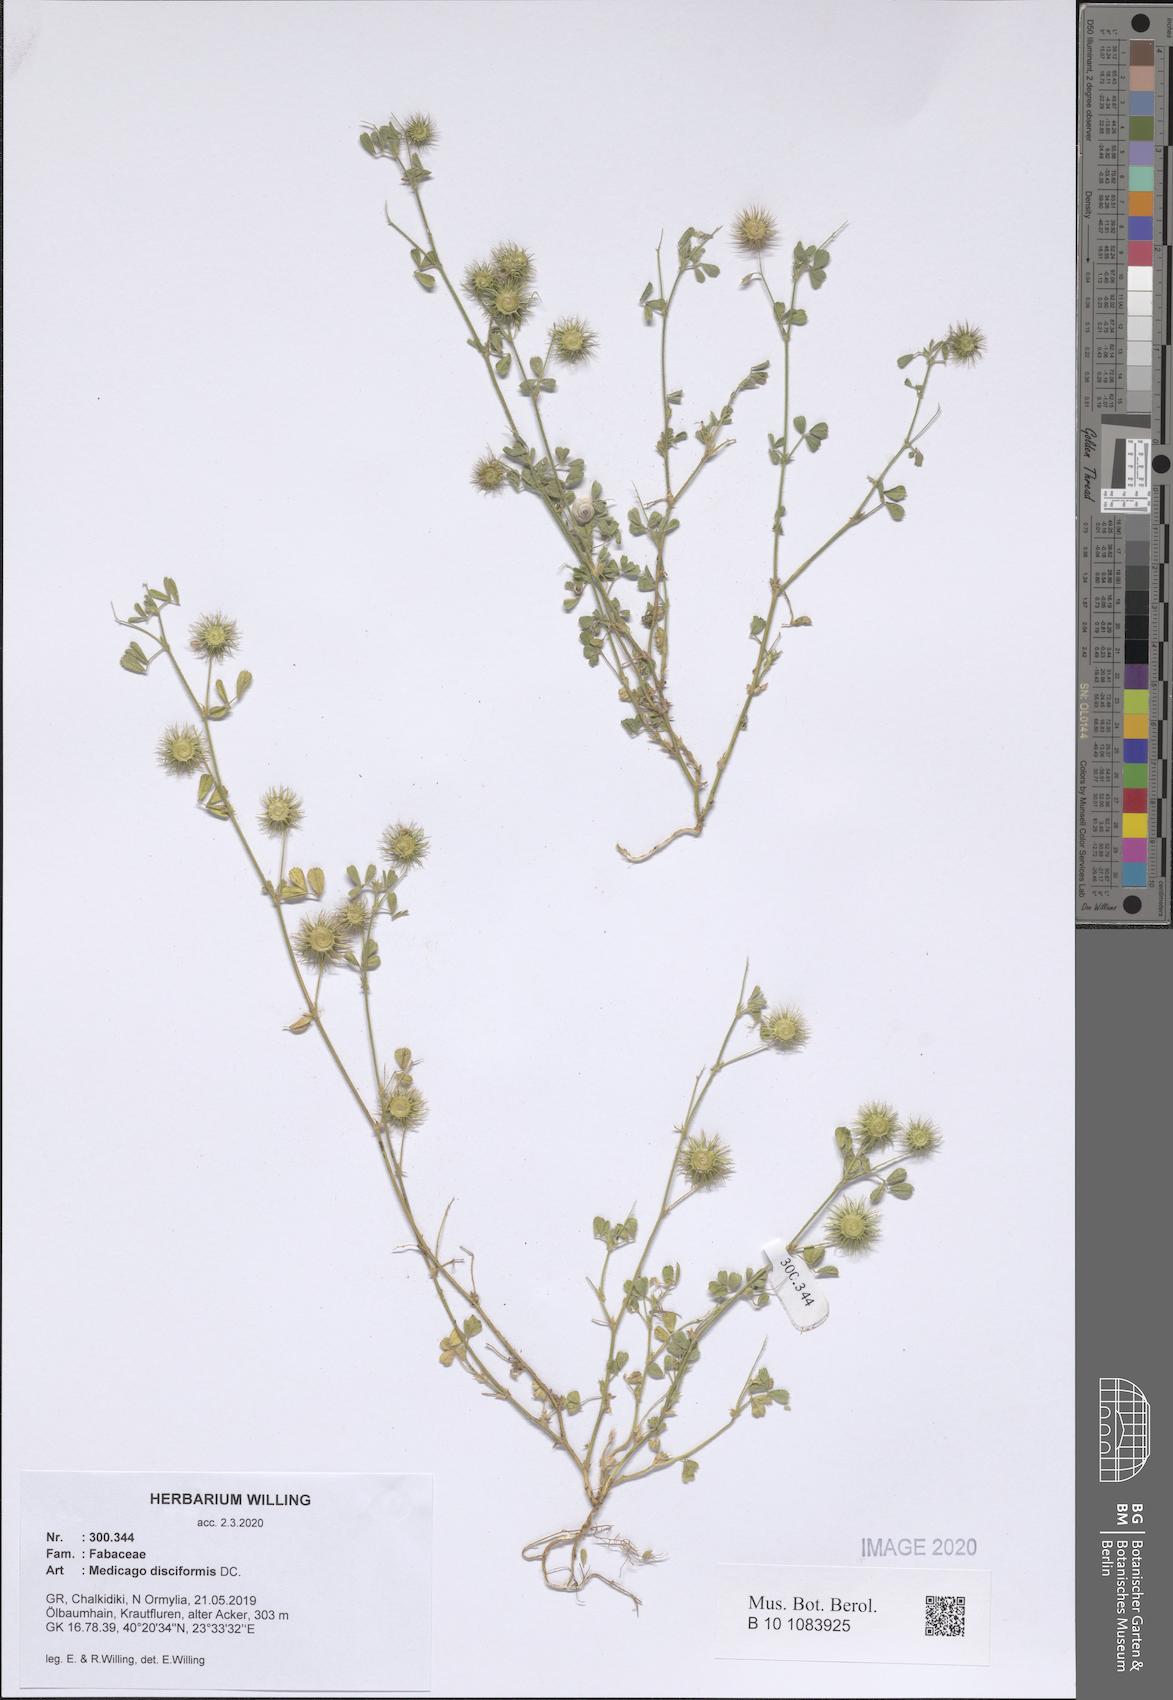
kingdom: Plantae
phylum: Tracheophyta
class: Magnoliopsida
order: Fabales
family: Fabaceae
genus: Medicago
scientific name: Medicago disciformis
